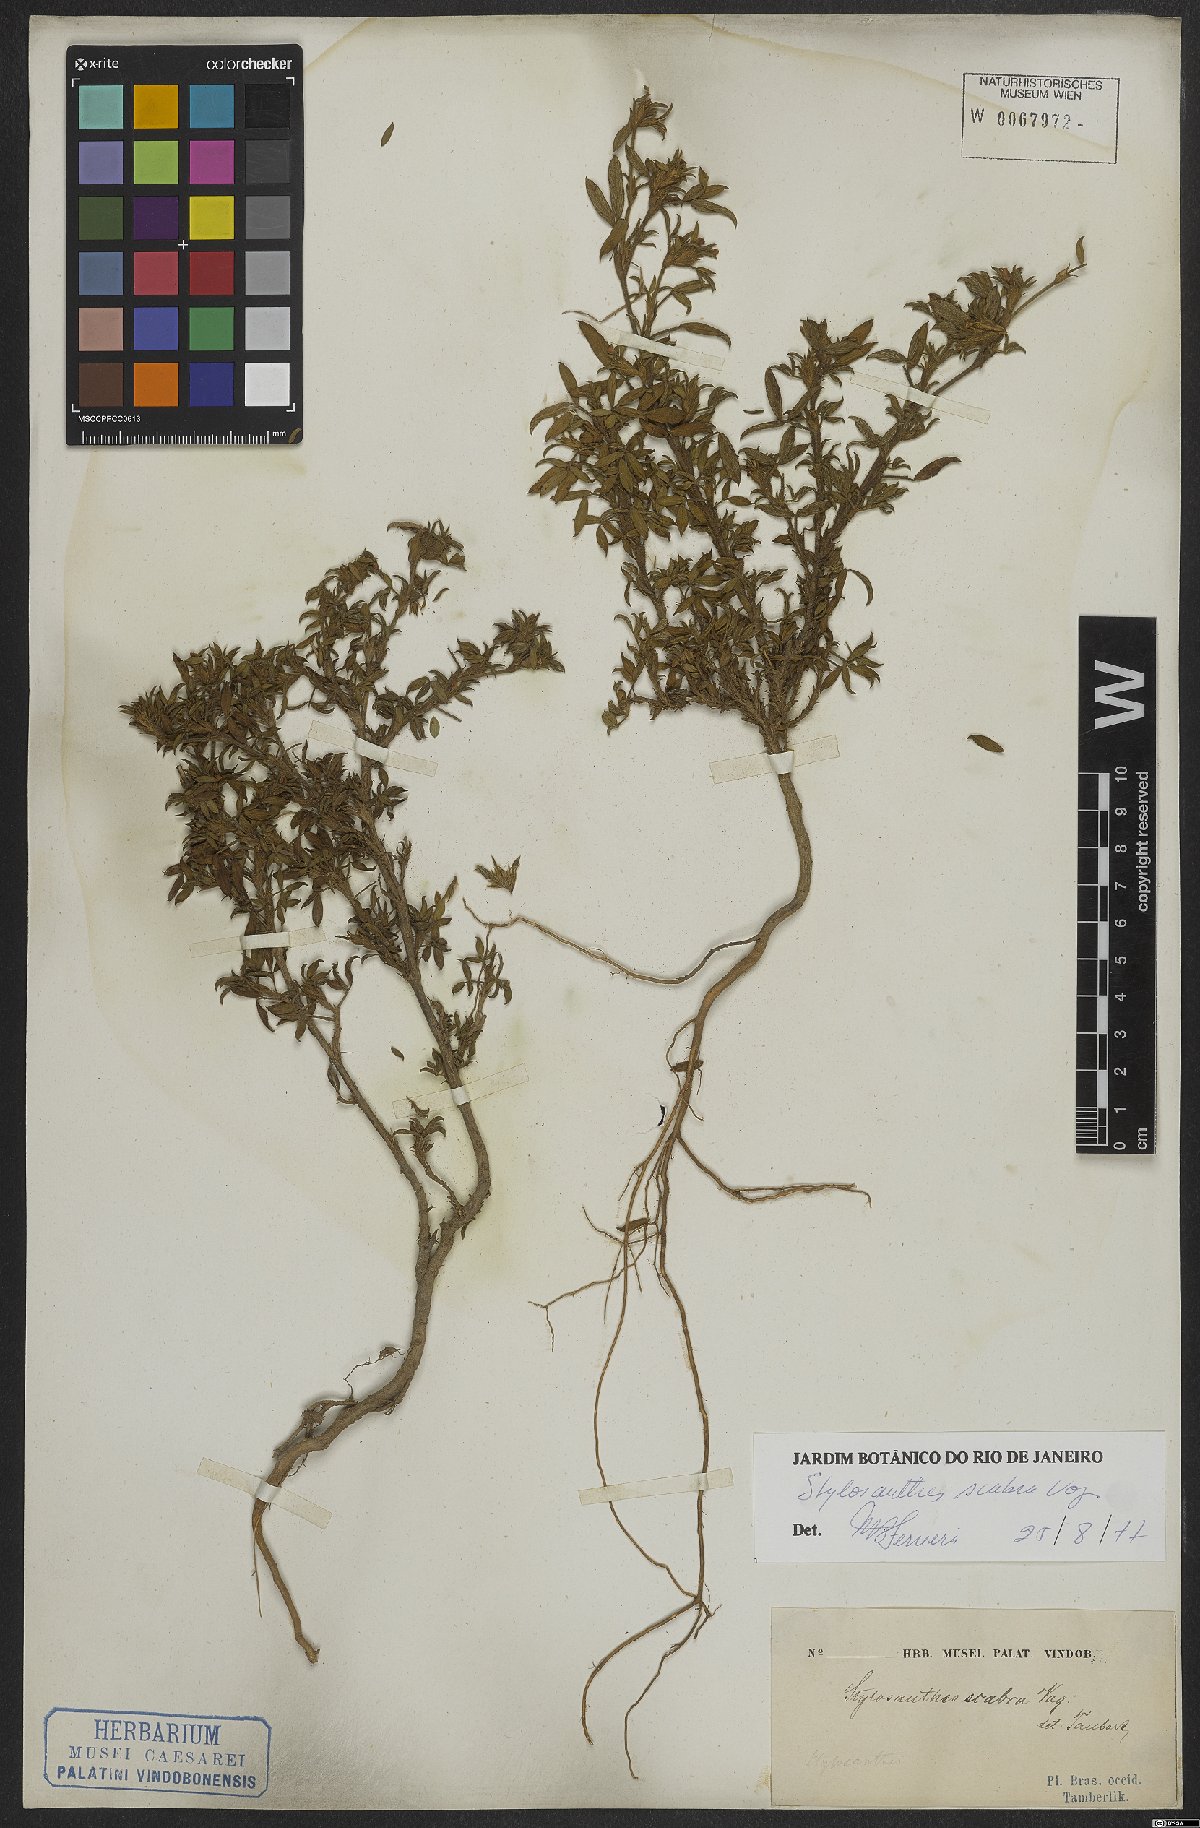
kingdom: Plantae
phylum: Tracheophyta
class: Magnoliopsida
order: Fabales
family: Fabaceae
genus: Stylosanthes
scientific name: Stylosanthes scabra
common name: Pencilflower
